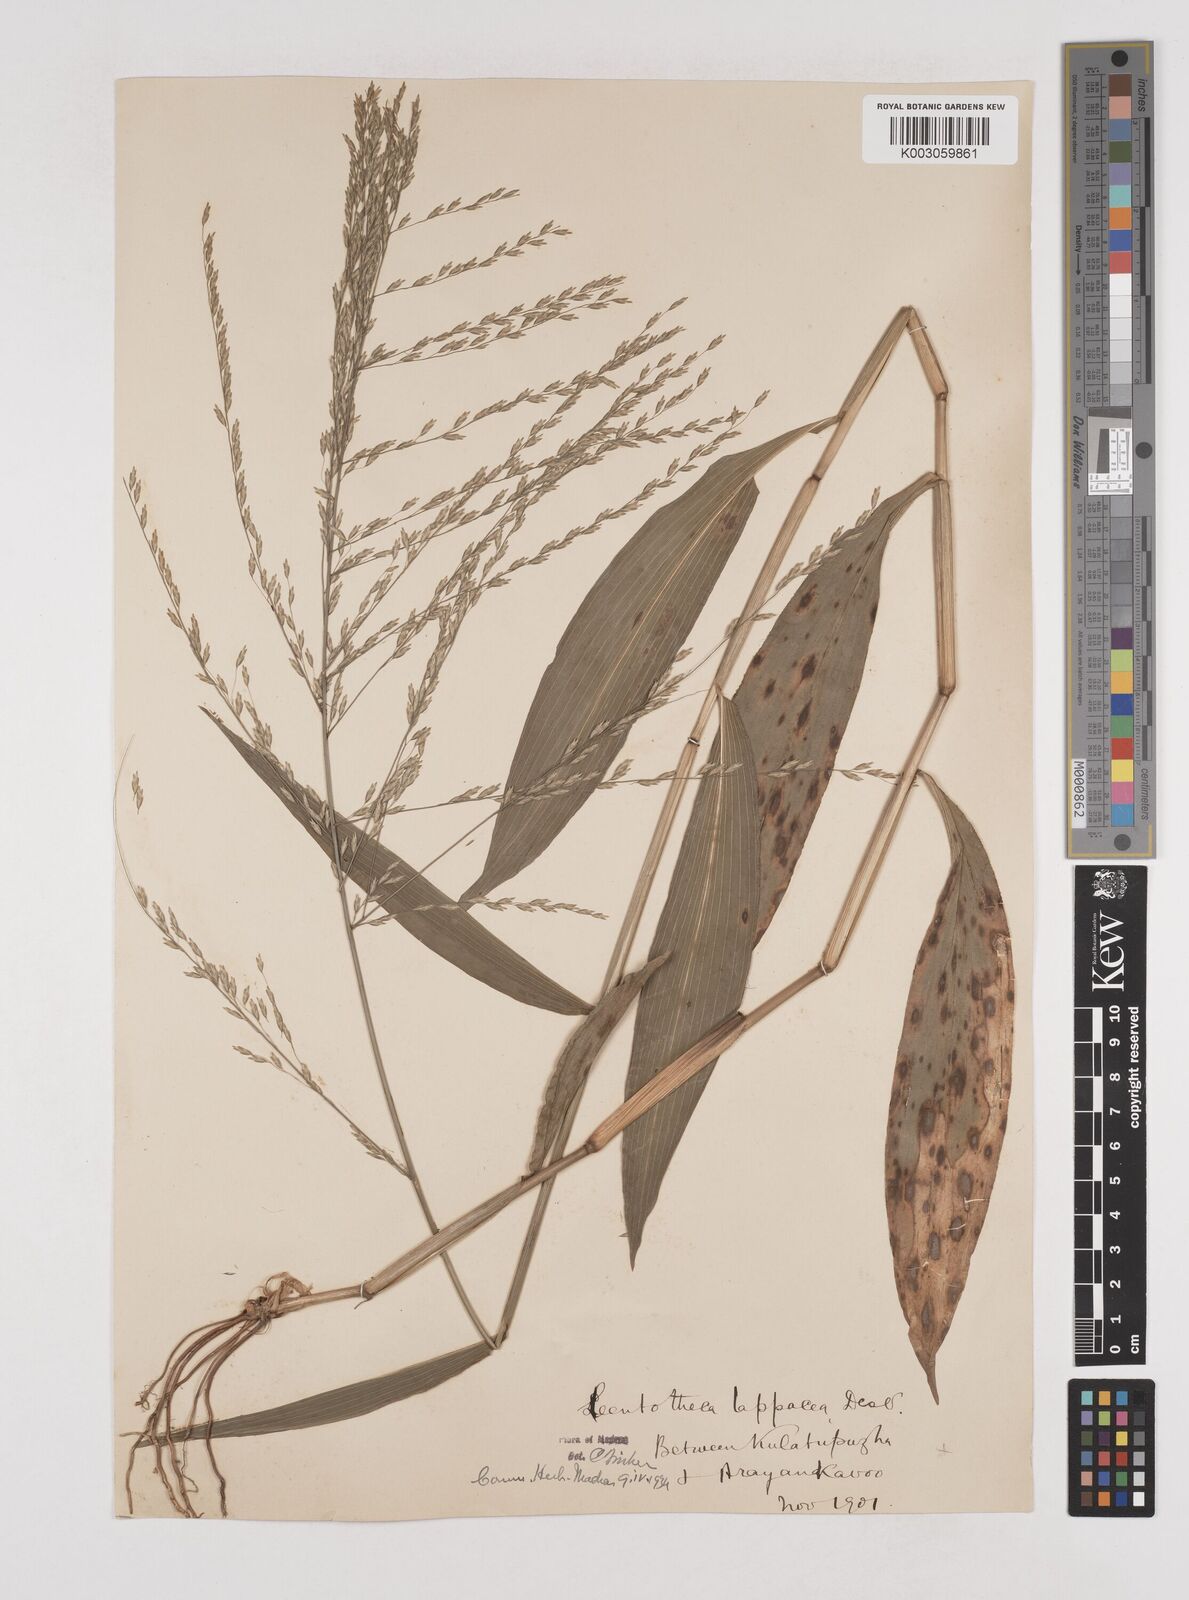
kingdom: Plantae
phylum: Tracheophyta
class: Liliopsida
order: Poales
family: Poaceae
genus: Centotheca
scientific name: Centotheca lappacea
